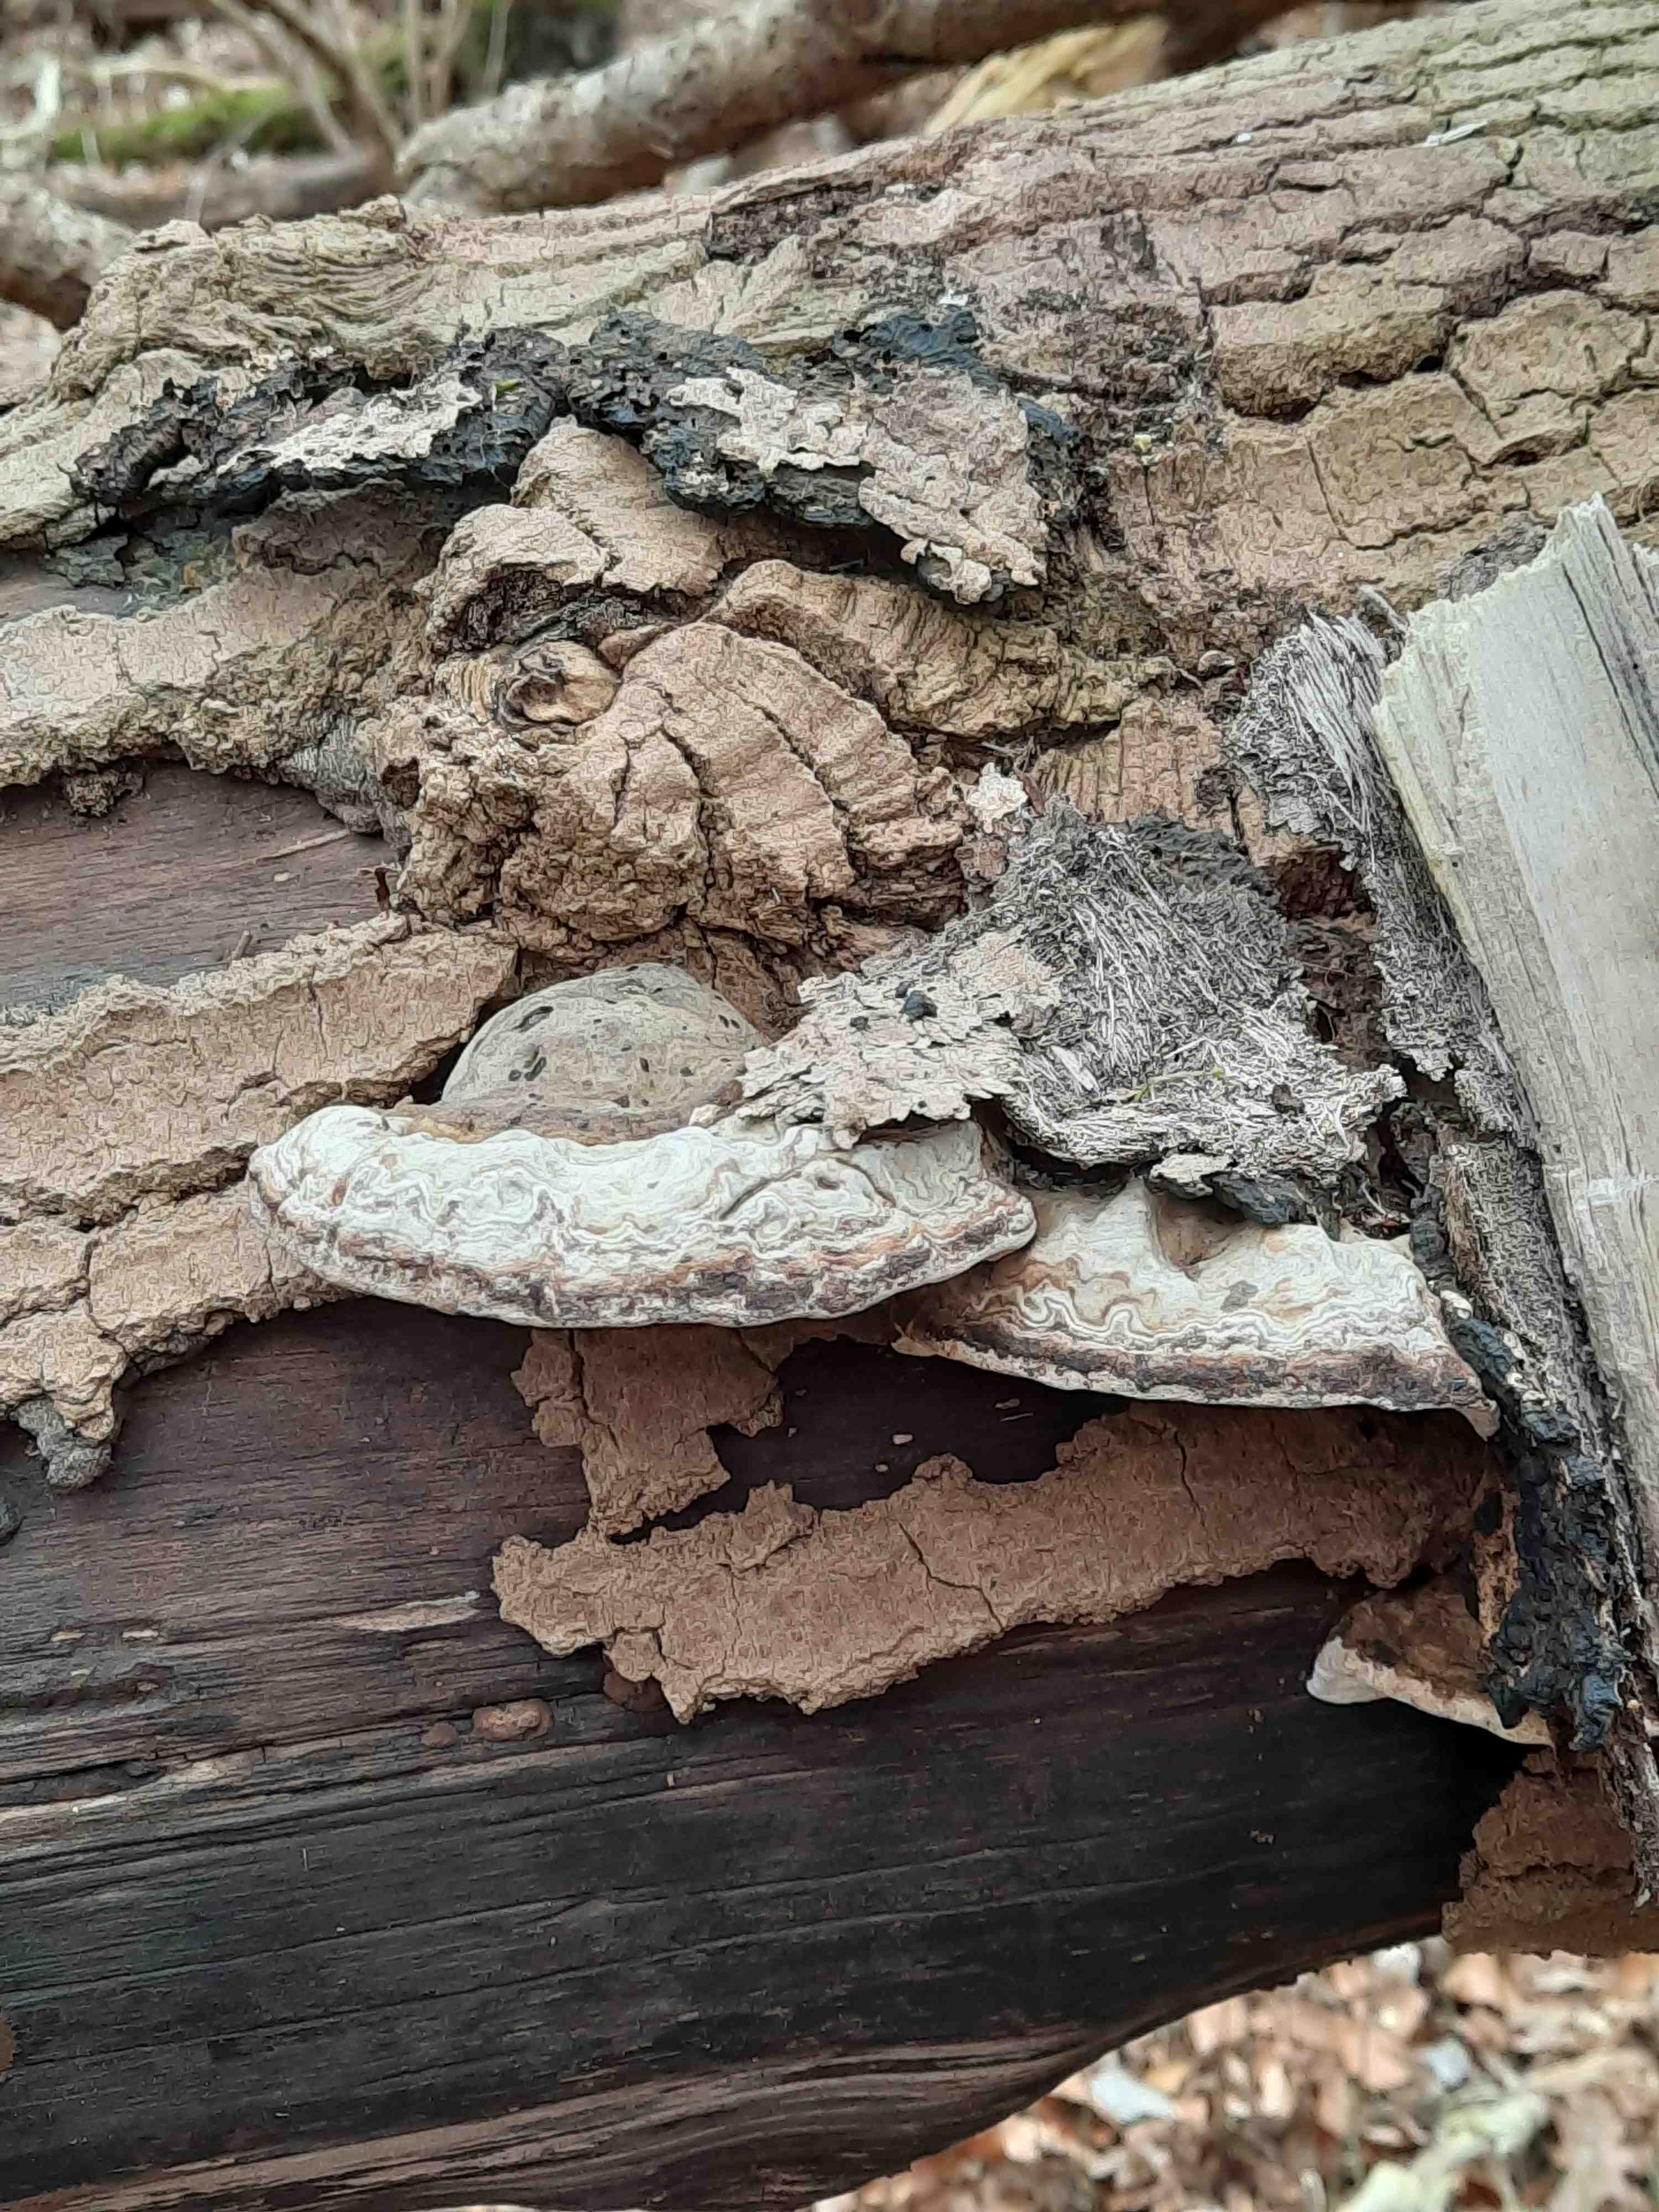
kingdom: Fungi
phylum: Basidiomycota
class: Agaricomycetes
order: Polyporales
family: Polyporaceae
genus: Ganoderma
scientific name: Ganoderma applanatum
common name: flad lakporesvamp
